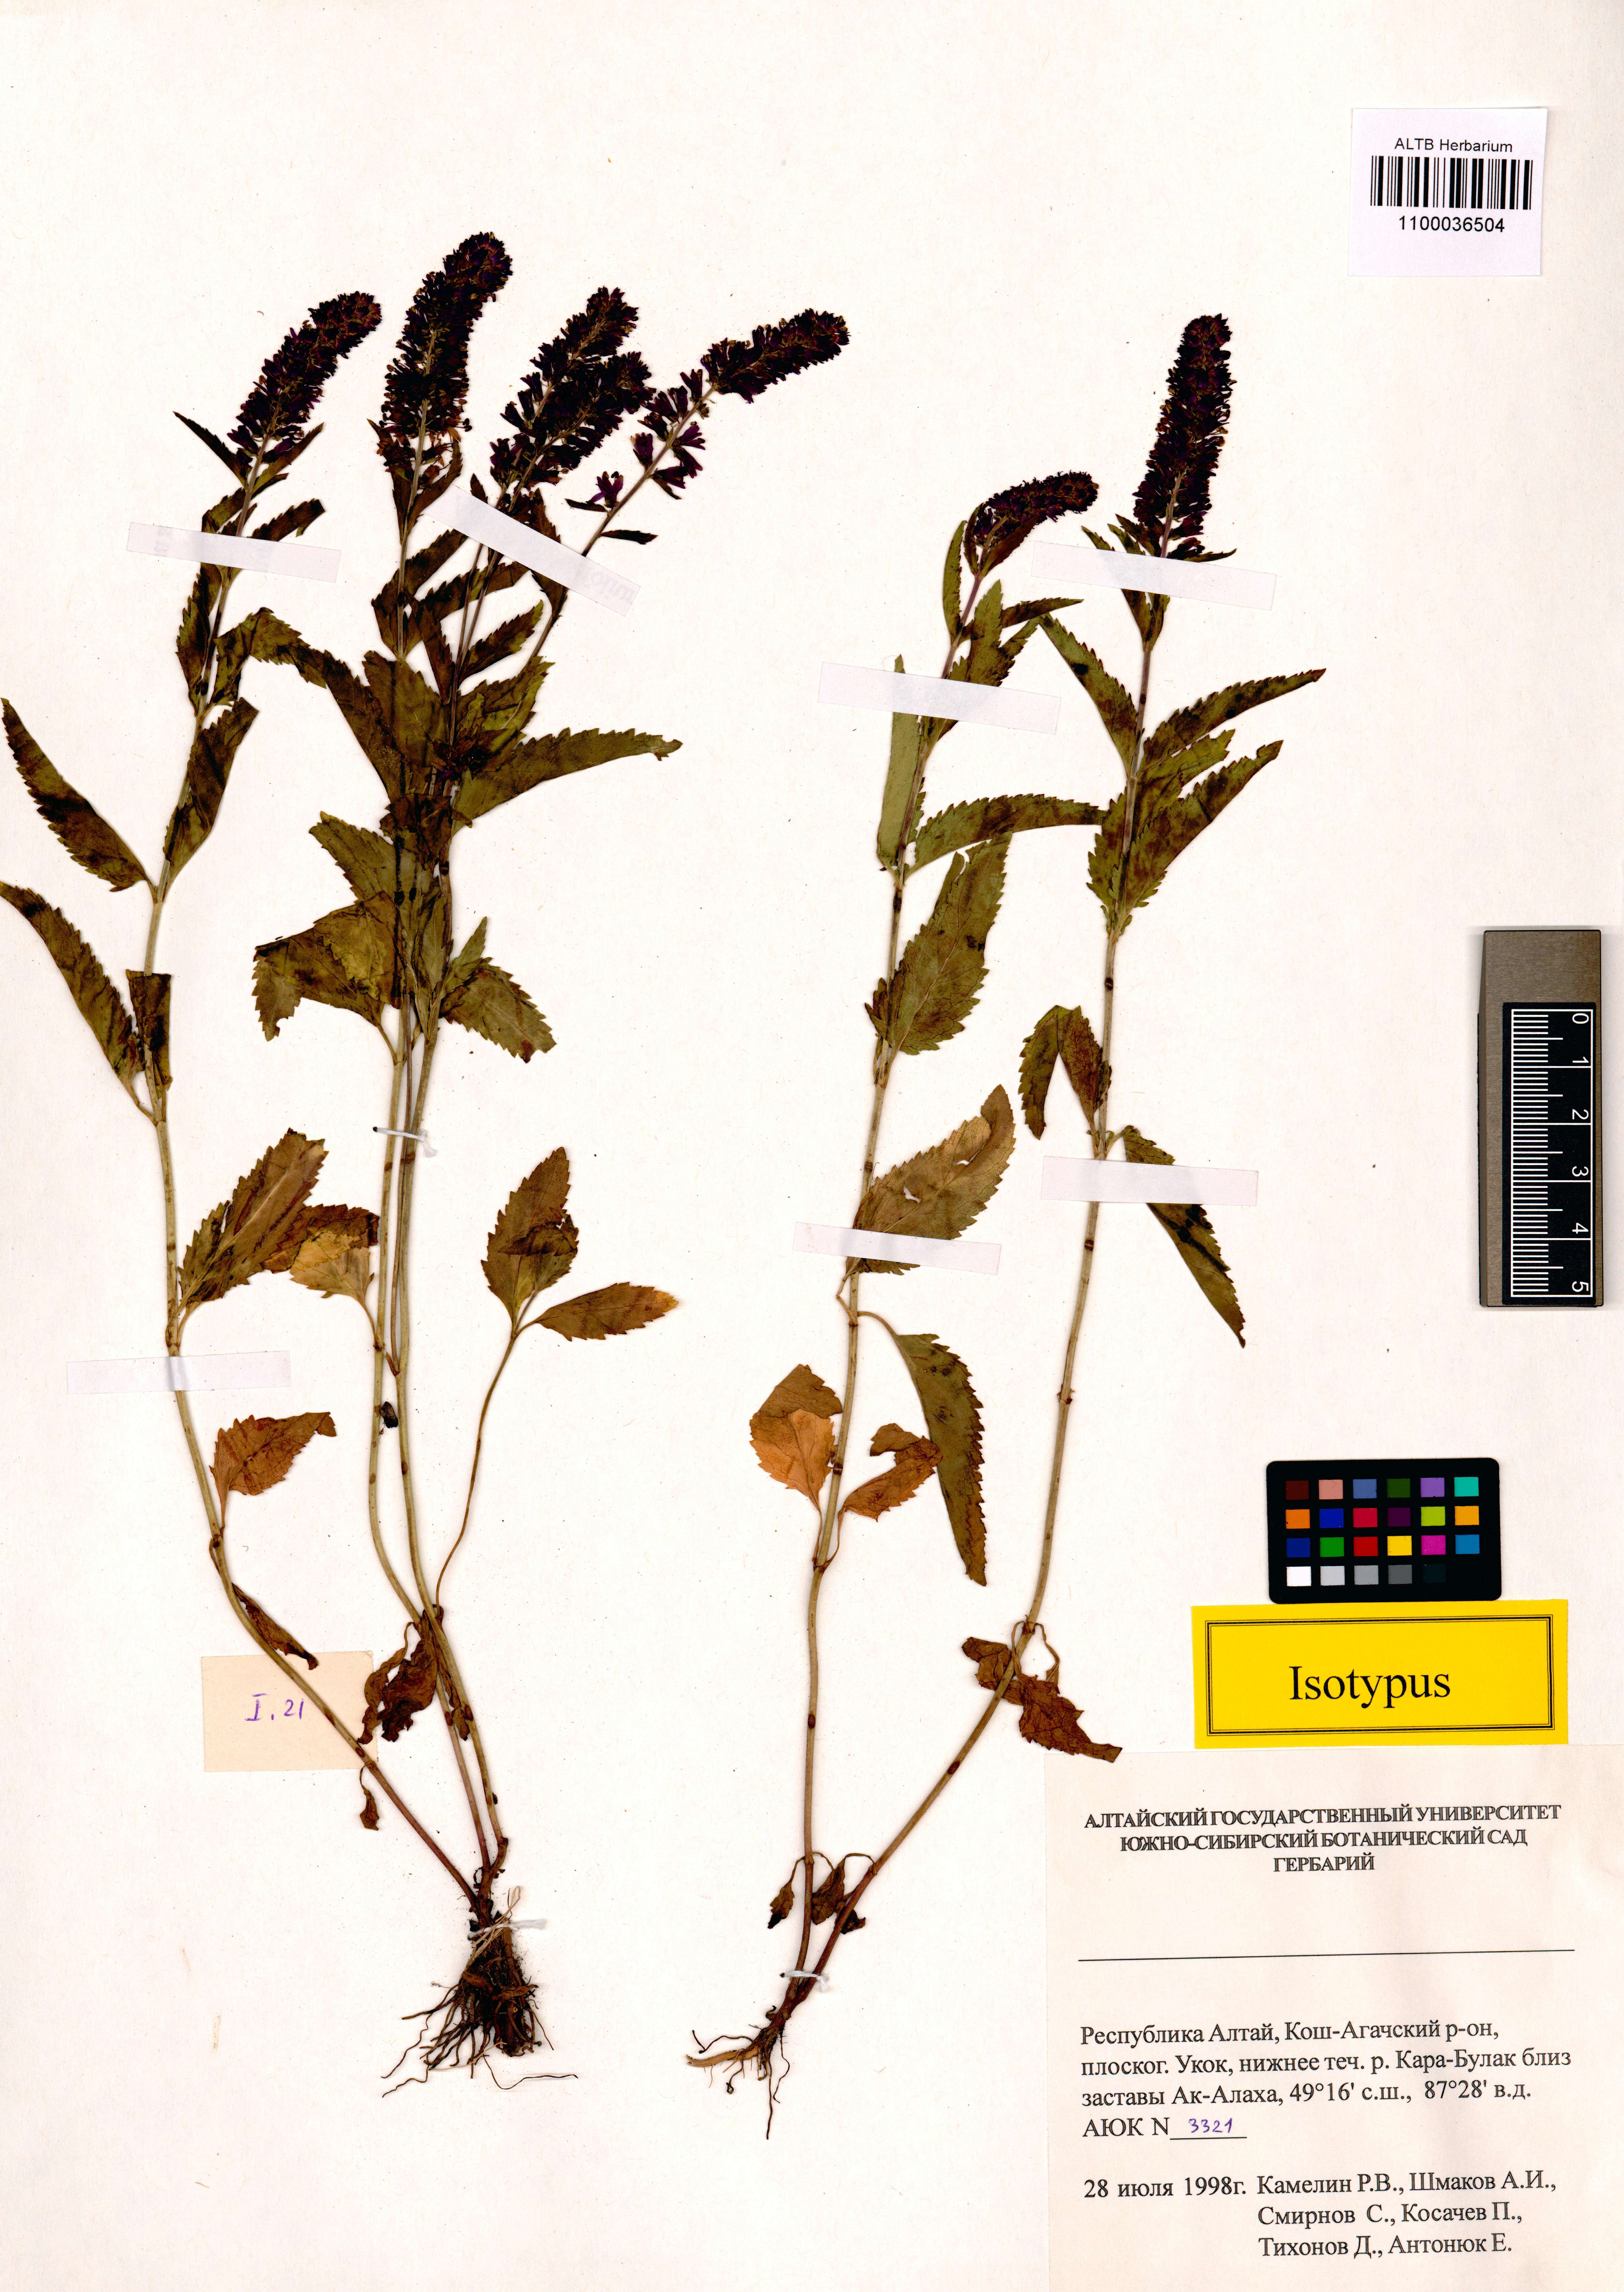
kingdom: Plantae
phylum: Tracheophyta
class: Magnoliopsida
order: Lamiales
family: Plantaginaceae
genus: Veronica
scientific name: Veronica schmakovii
